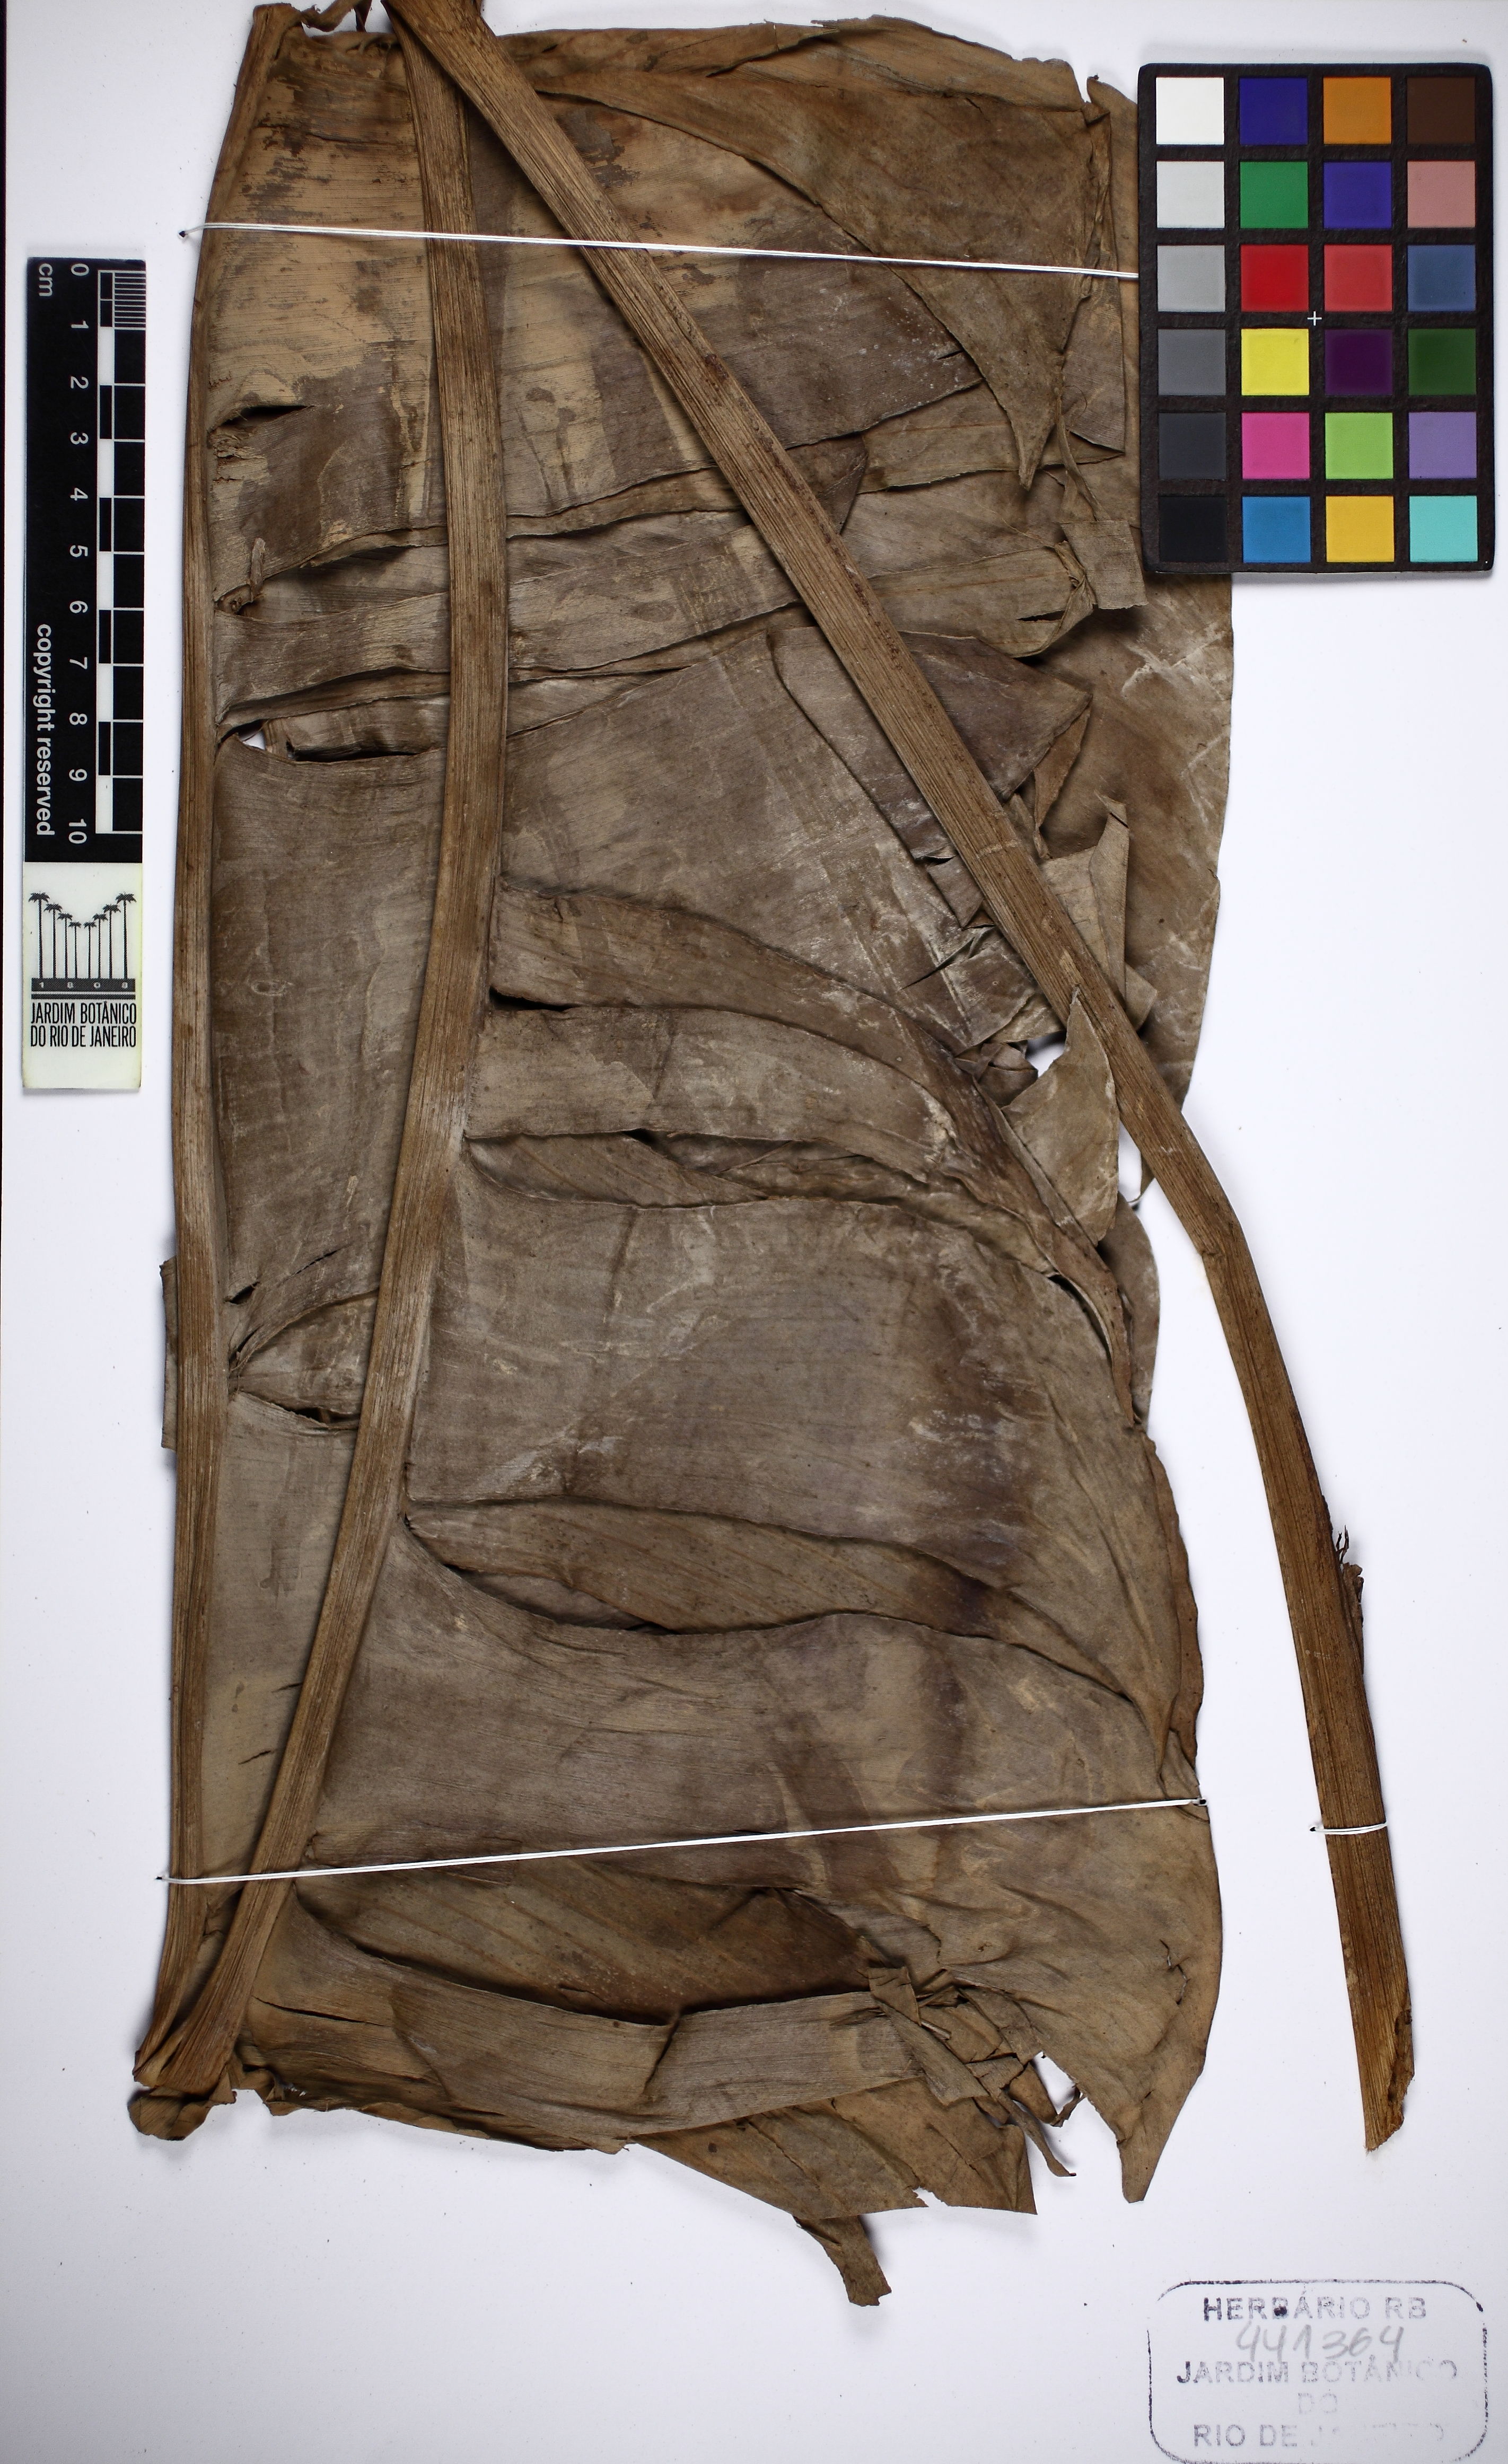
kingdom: Plantae
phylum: Tracheophyta
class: Liliopsida
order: Zingiberales
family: Heliconiaceae
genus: Heliconia
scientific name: Heliconia aemygdiana
